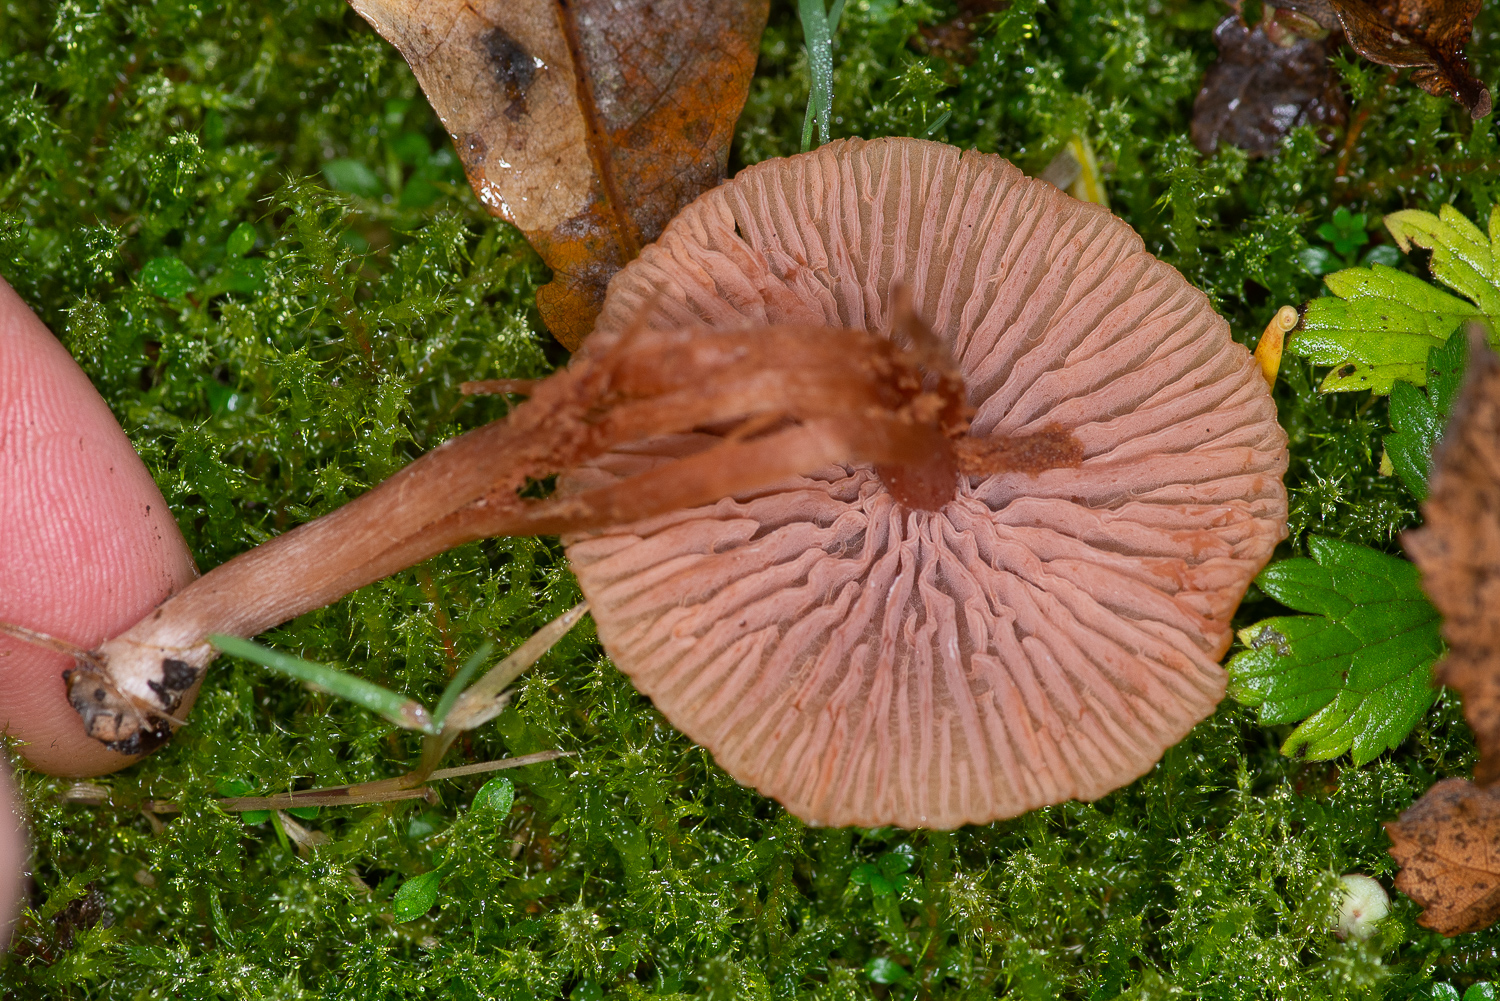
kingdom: Fungi
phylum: Basidiomycota
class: Agaricomycetes
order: Agaricales
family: Hydnangiaceae
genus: Laccaria
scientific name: Laccaria laccata
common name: rød ametysthat
